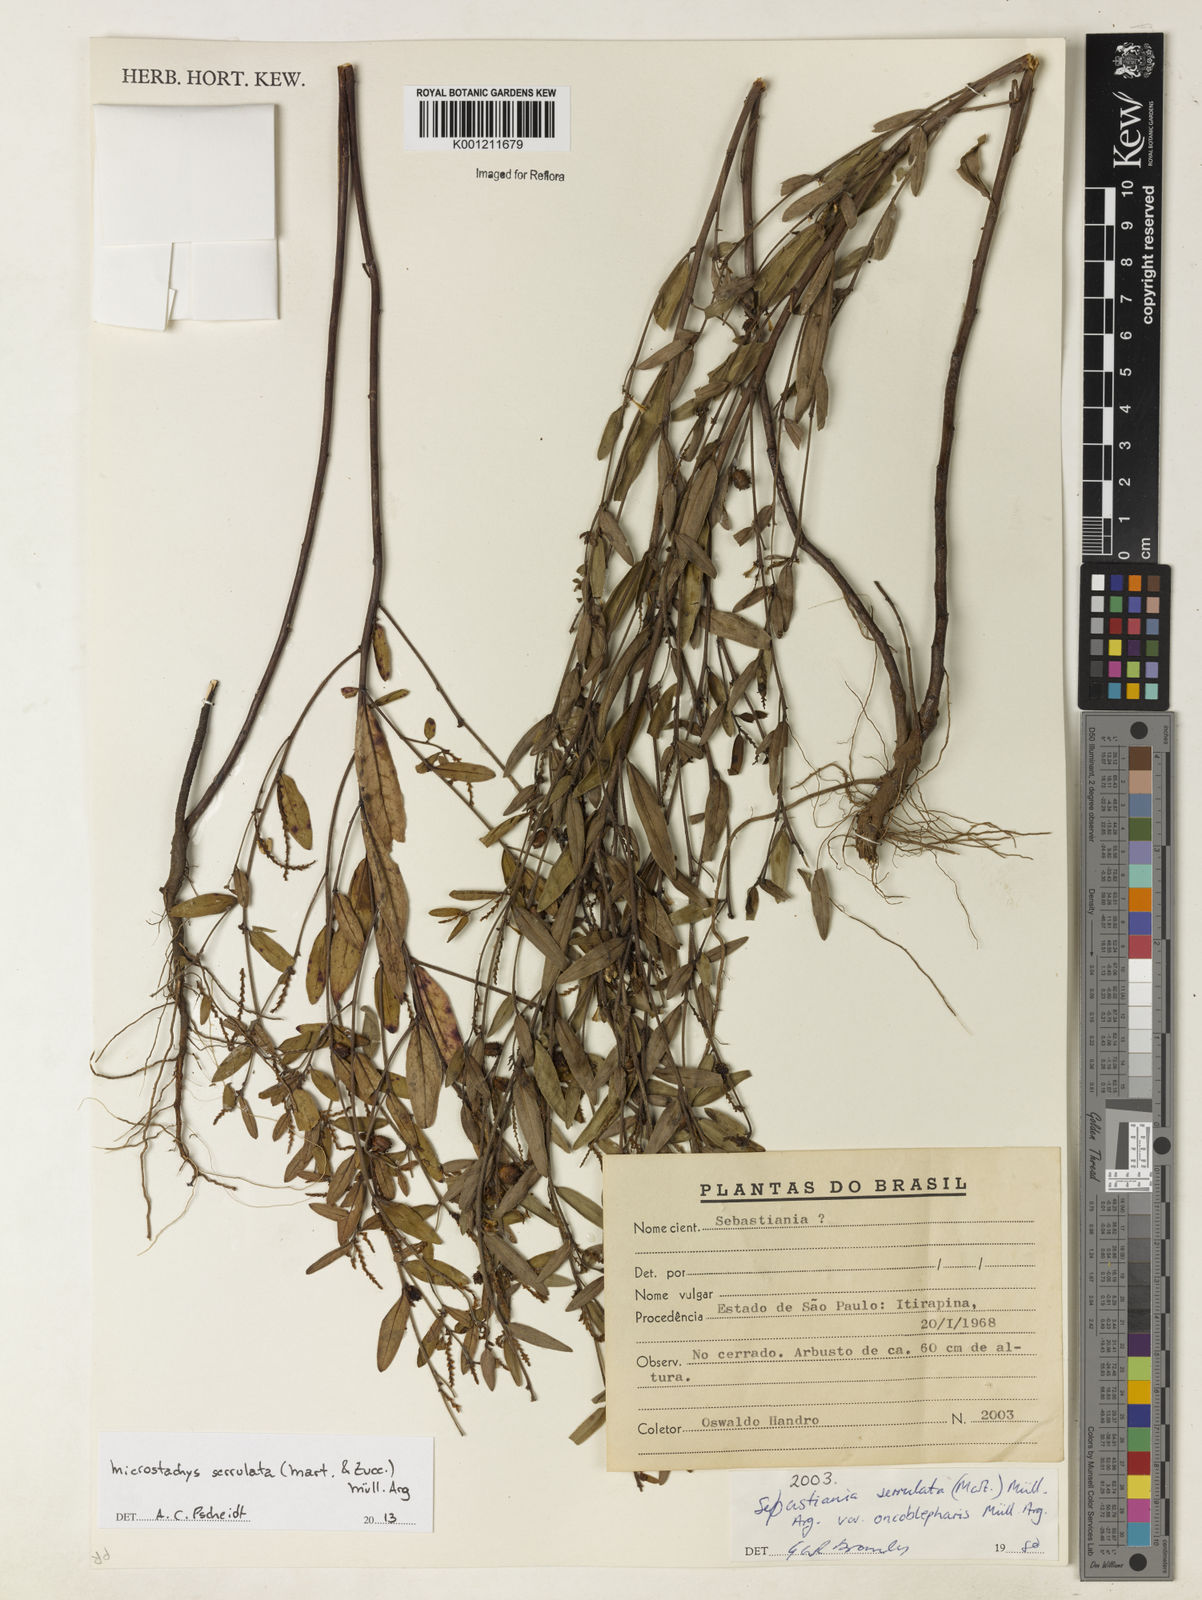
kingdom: Plantae
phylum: Tracheophyta
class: Magnoliopsida
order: Malpighiales
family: Euphorbiaceae
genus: Microstachys
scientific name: Microstachys
